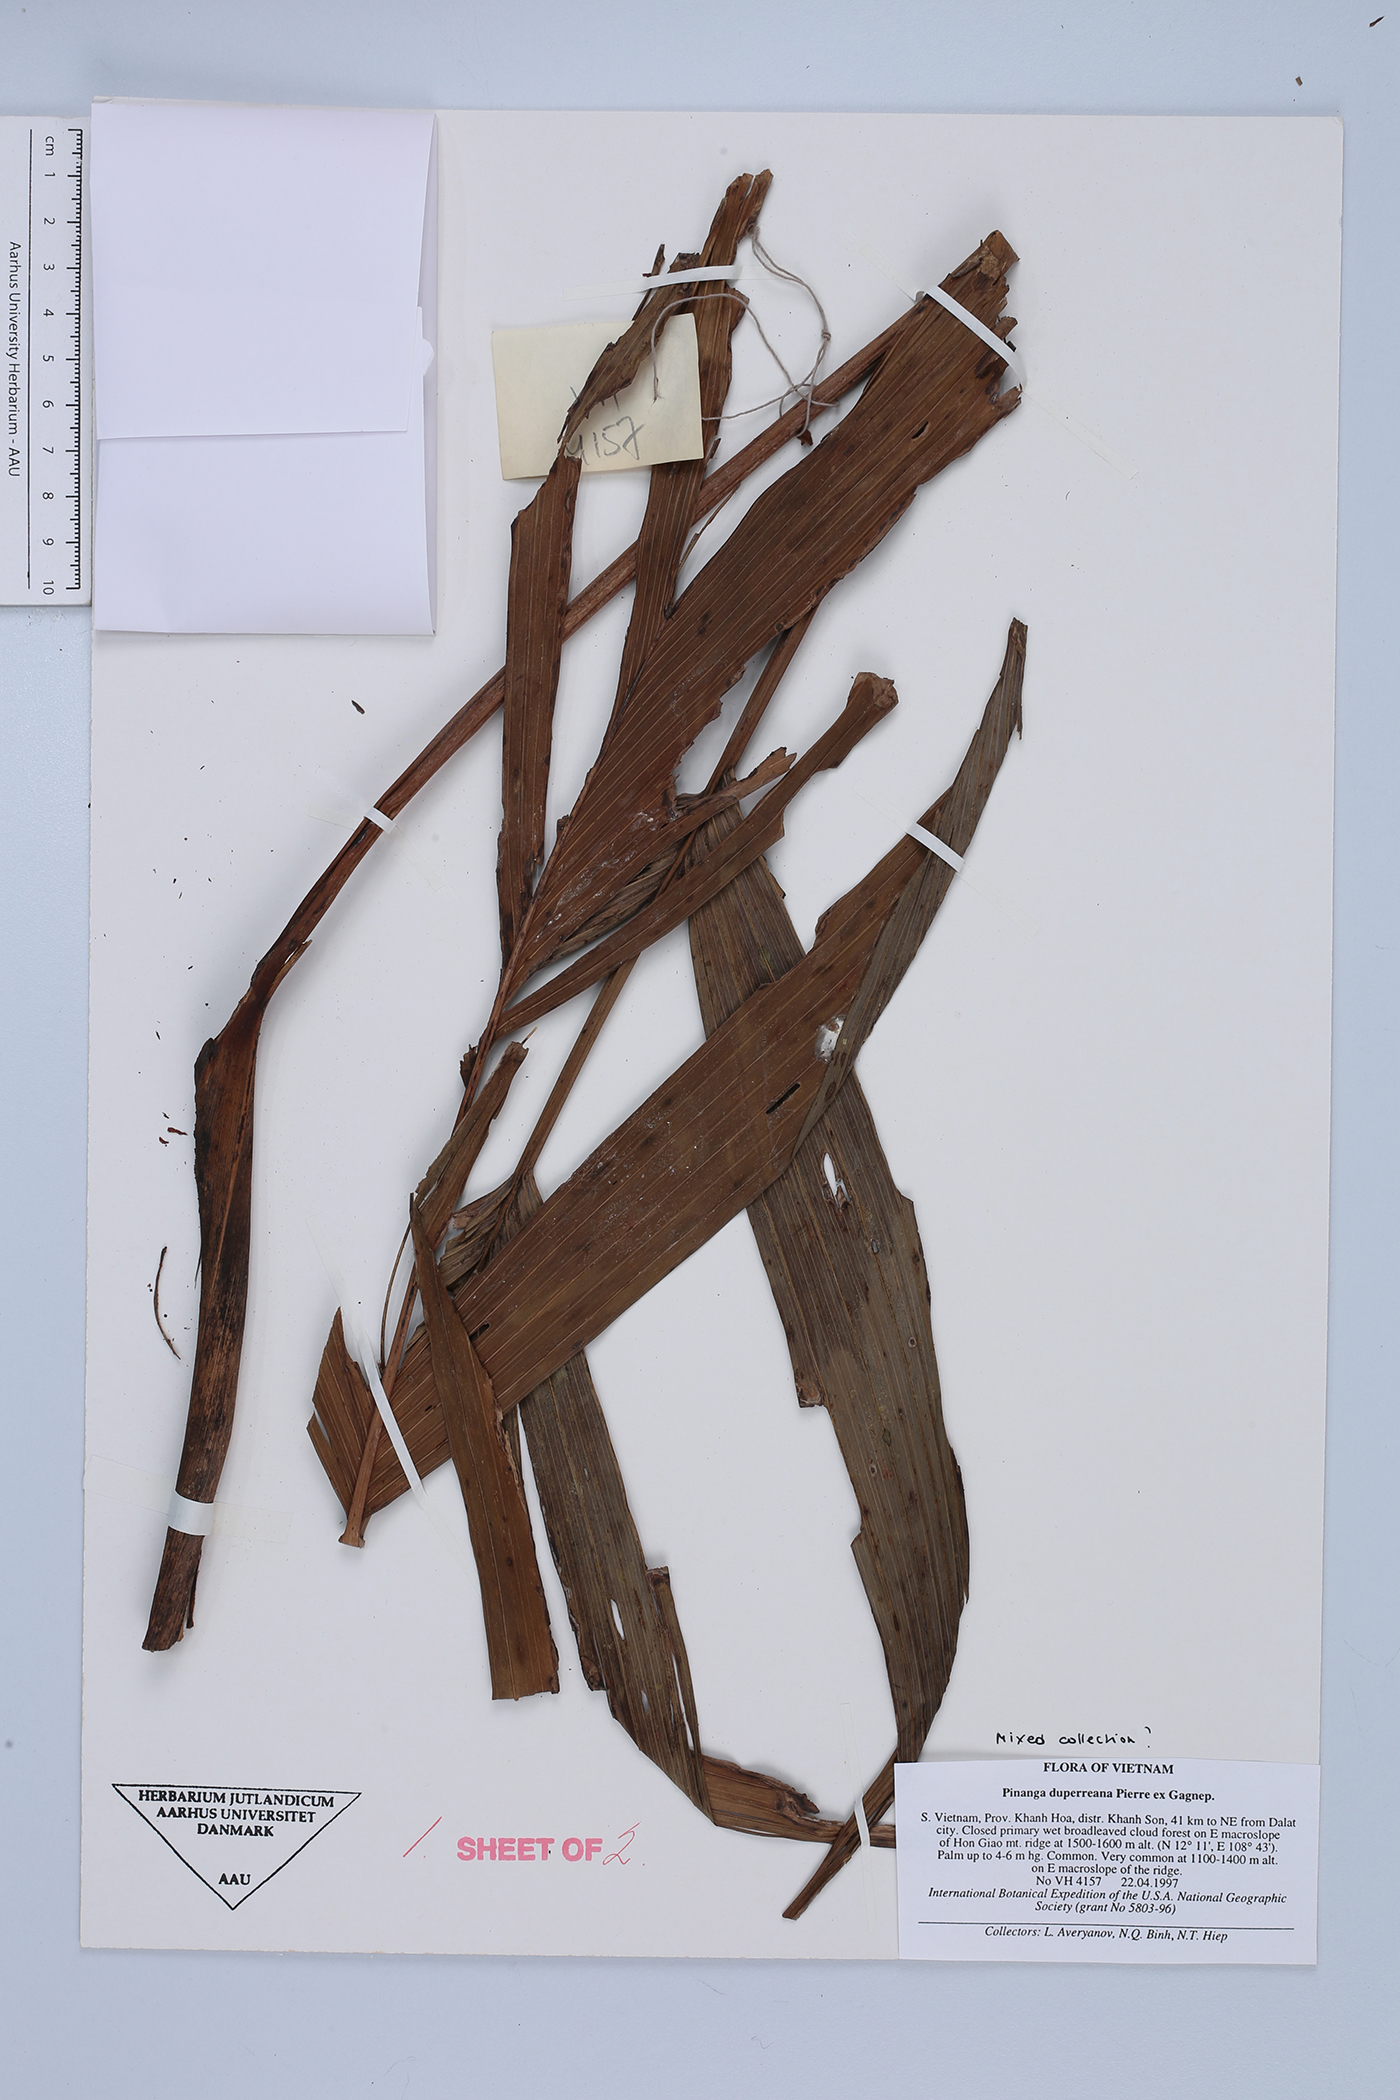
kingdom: Plantae
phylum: Tracheophyta
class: Liliopsida
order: Arecales
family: Arecaceae
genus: Pinanga
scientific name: Pinanga sylvestris
